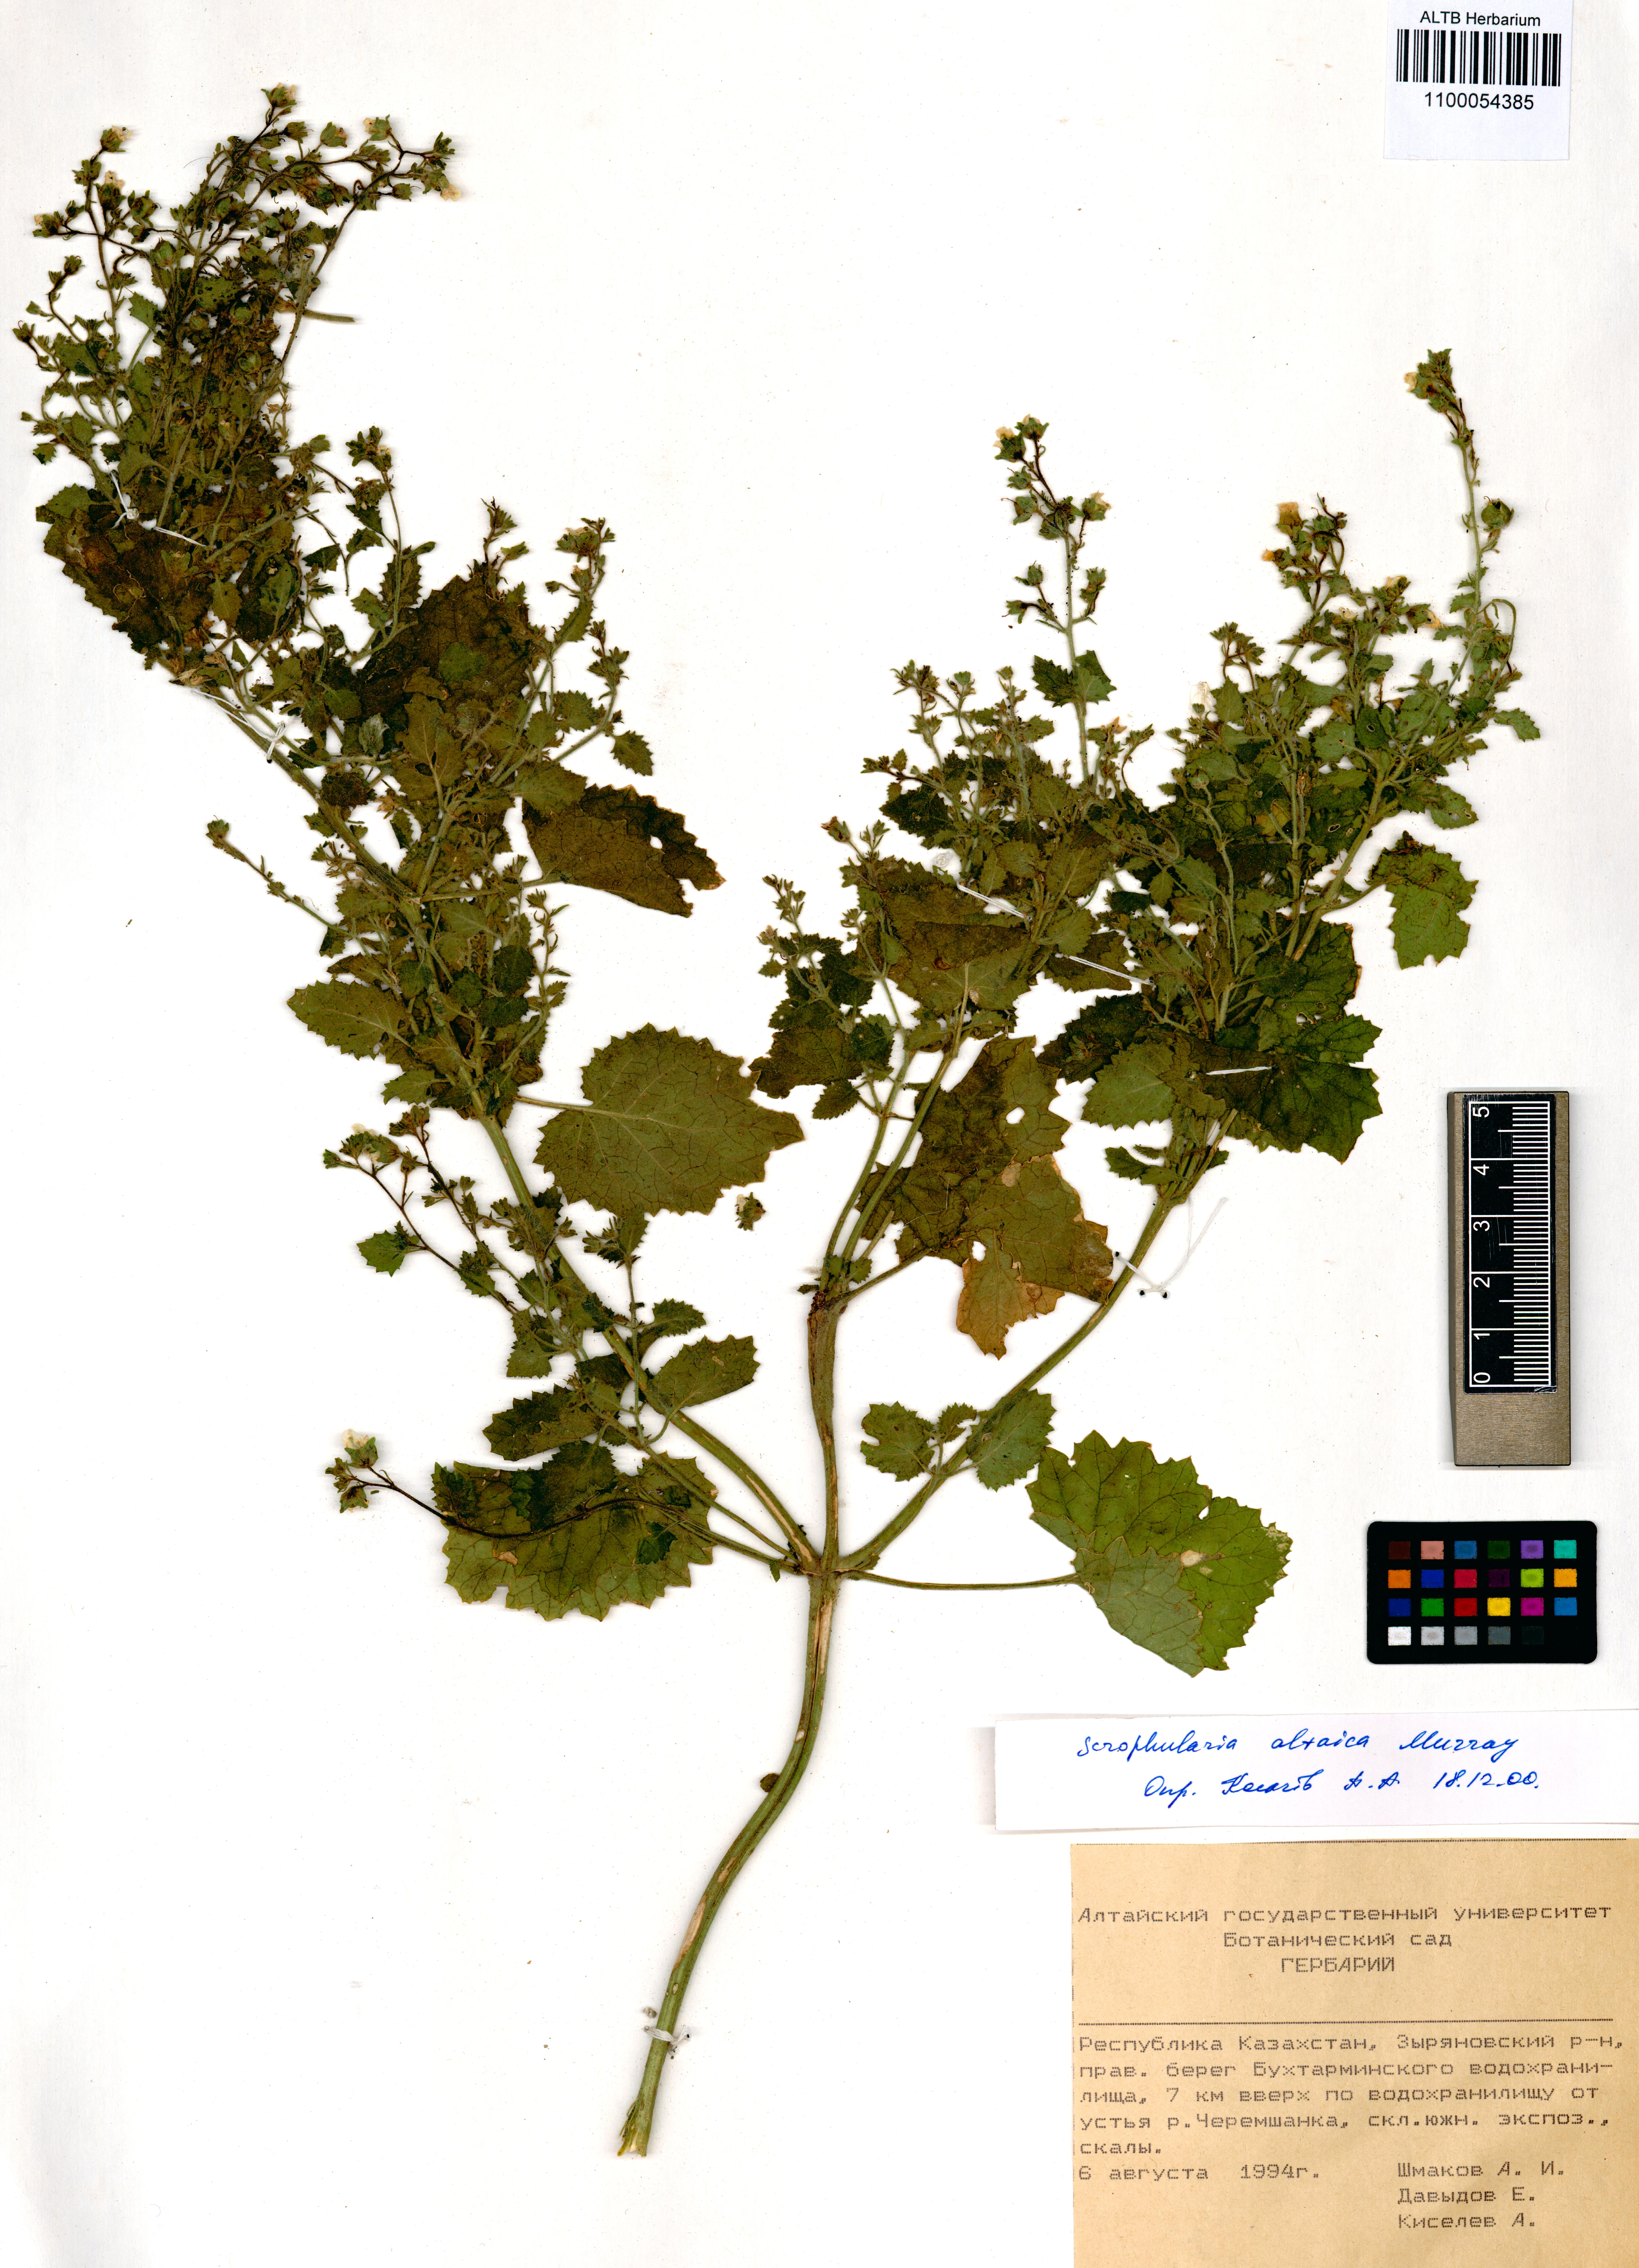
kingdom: Plantae
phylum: Tracheophyta
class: Magnoliopsida
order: Lamiales
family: Scrophulariaceae
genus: Scrophularia
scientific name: Scrophularia altaica
